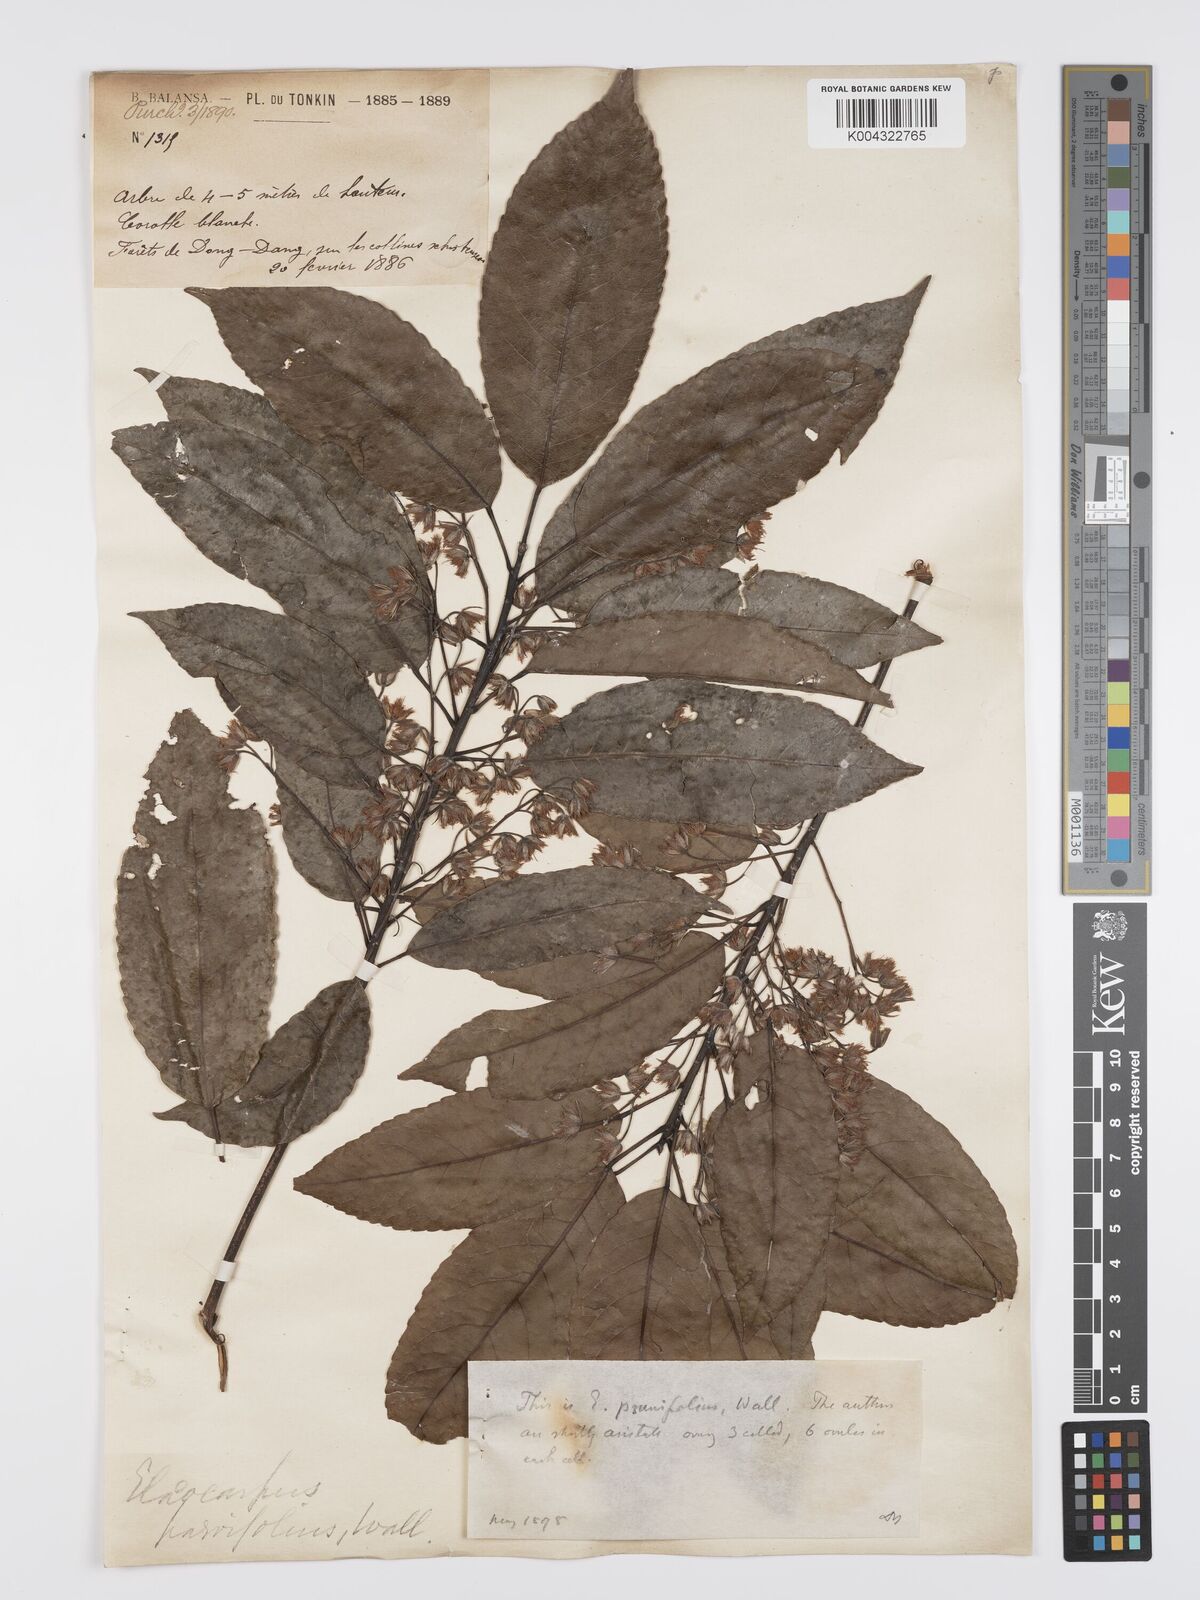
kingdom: Plantae
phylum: Tracheophyta
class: Magnoliopsida
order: Oxalidales
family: Elaeocarpaceae
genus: Elaeocarpus
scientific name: Elaeocarpus
